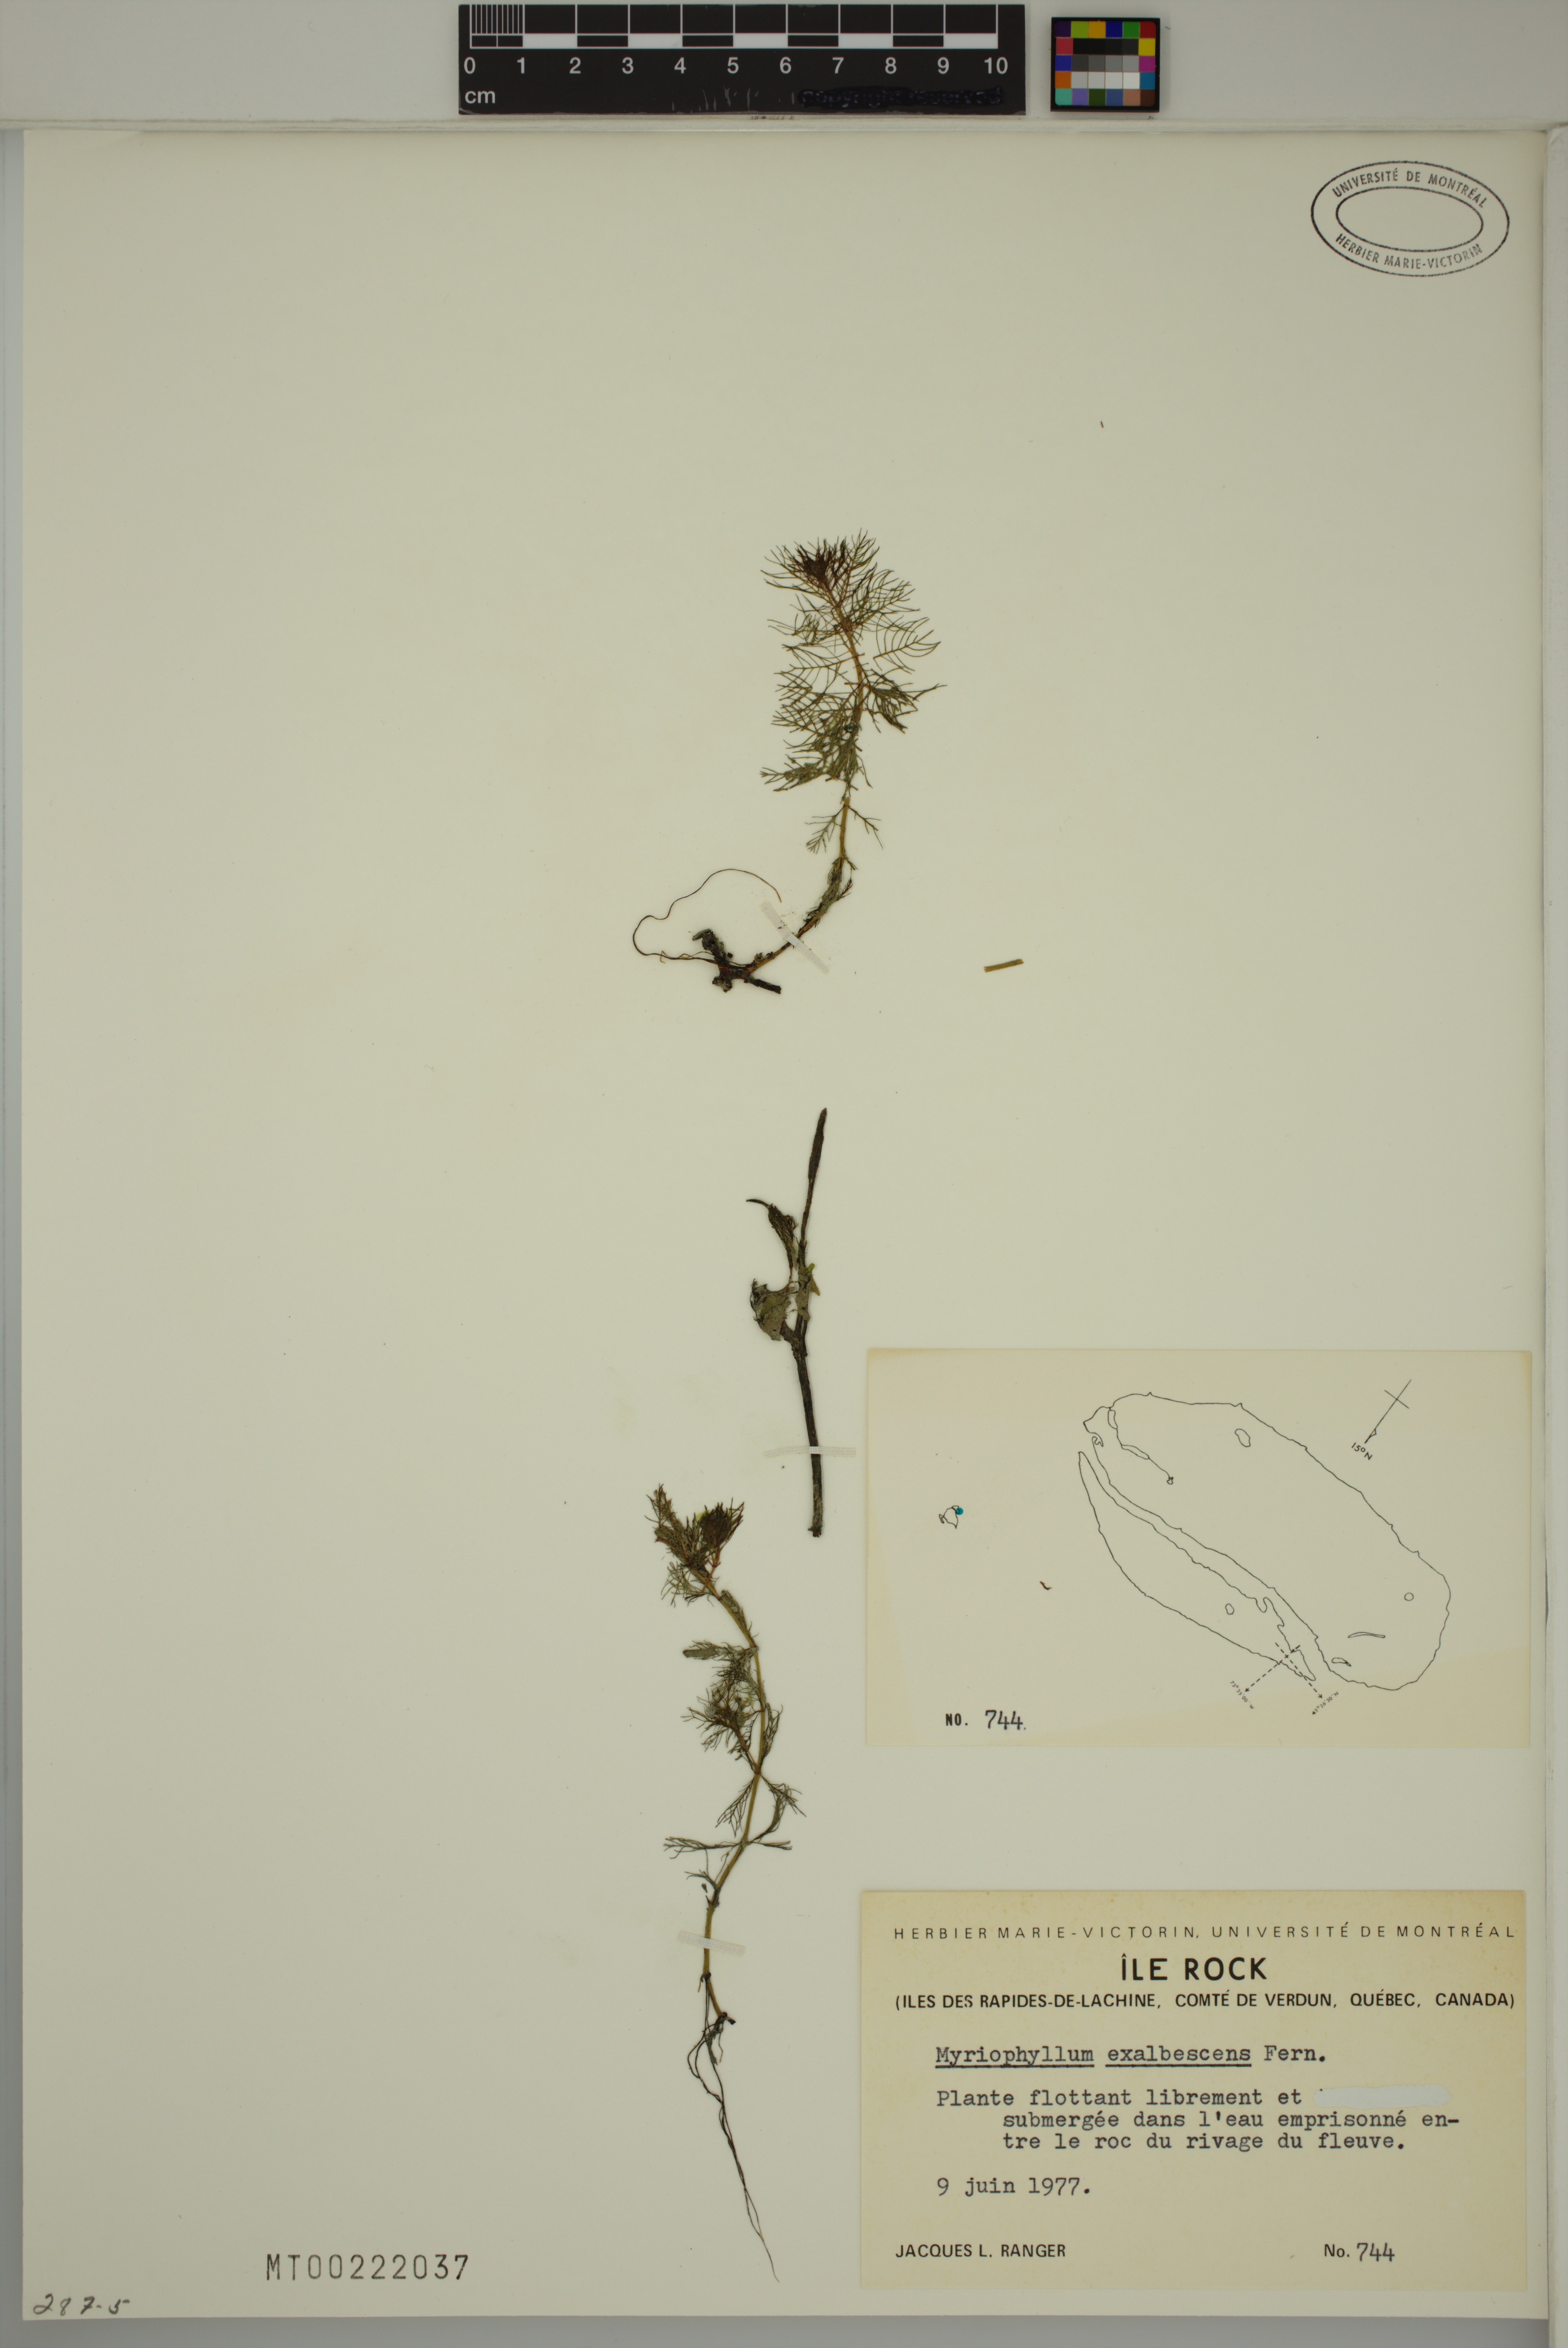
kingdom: Plantae
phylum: Tracheophyta
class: Magnoliopsida
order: Saxifragales
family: Haloragaceae
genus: Myriophyllum
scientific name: Myriophyllum sibiricum
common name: Siberian water-milfoil
